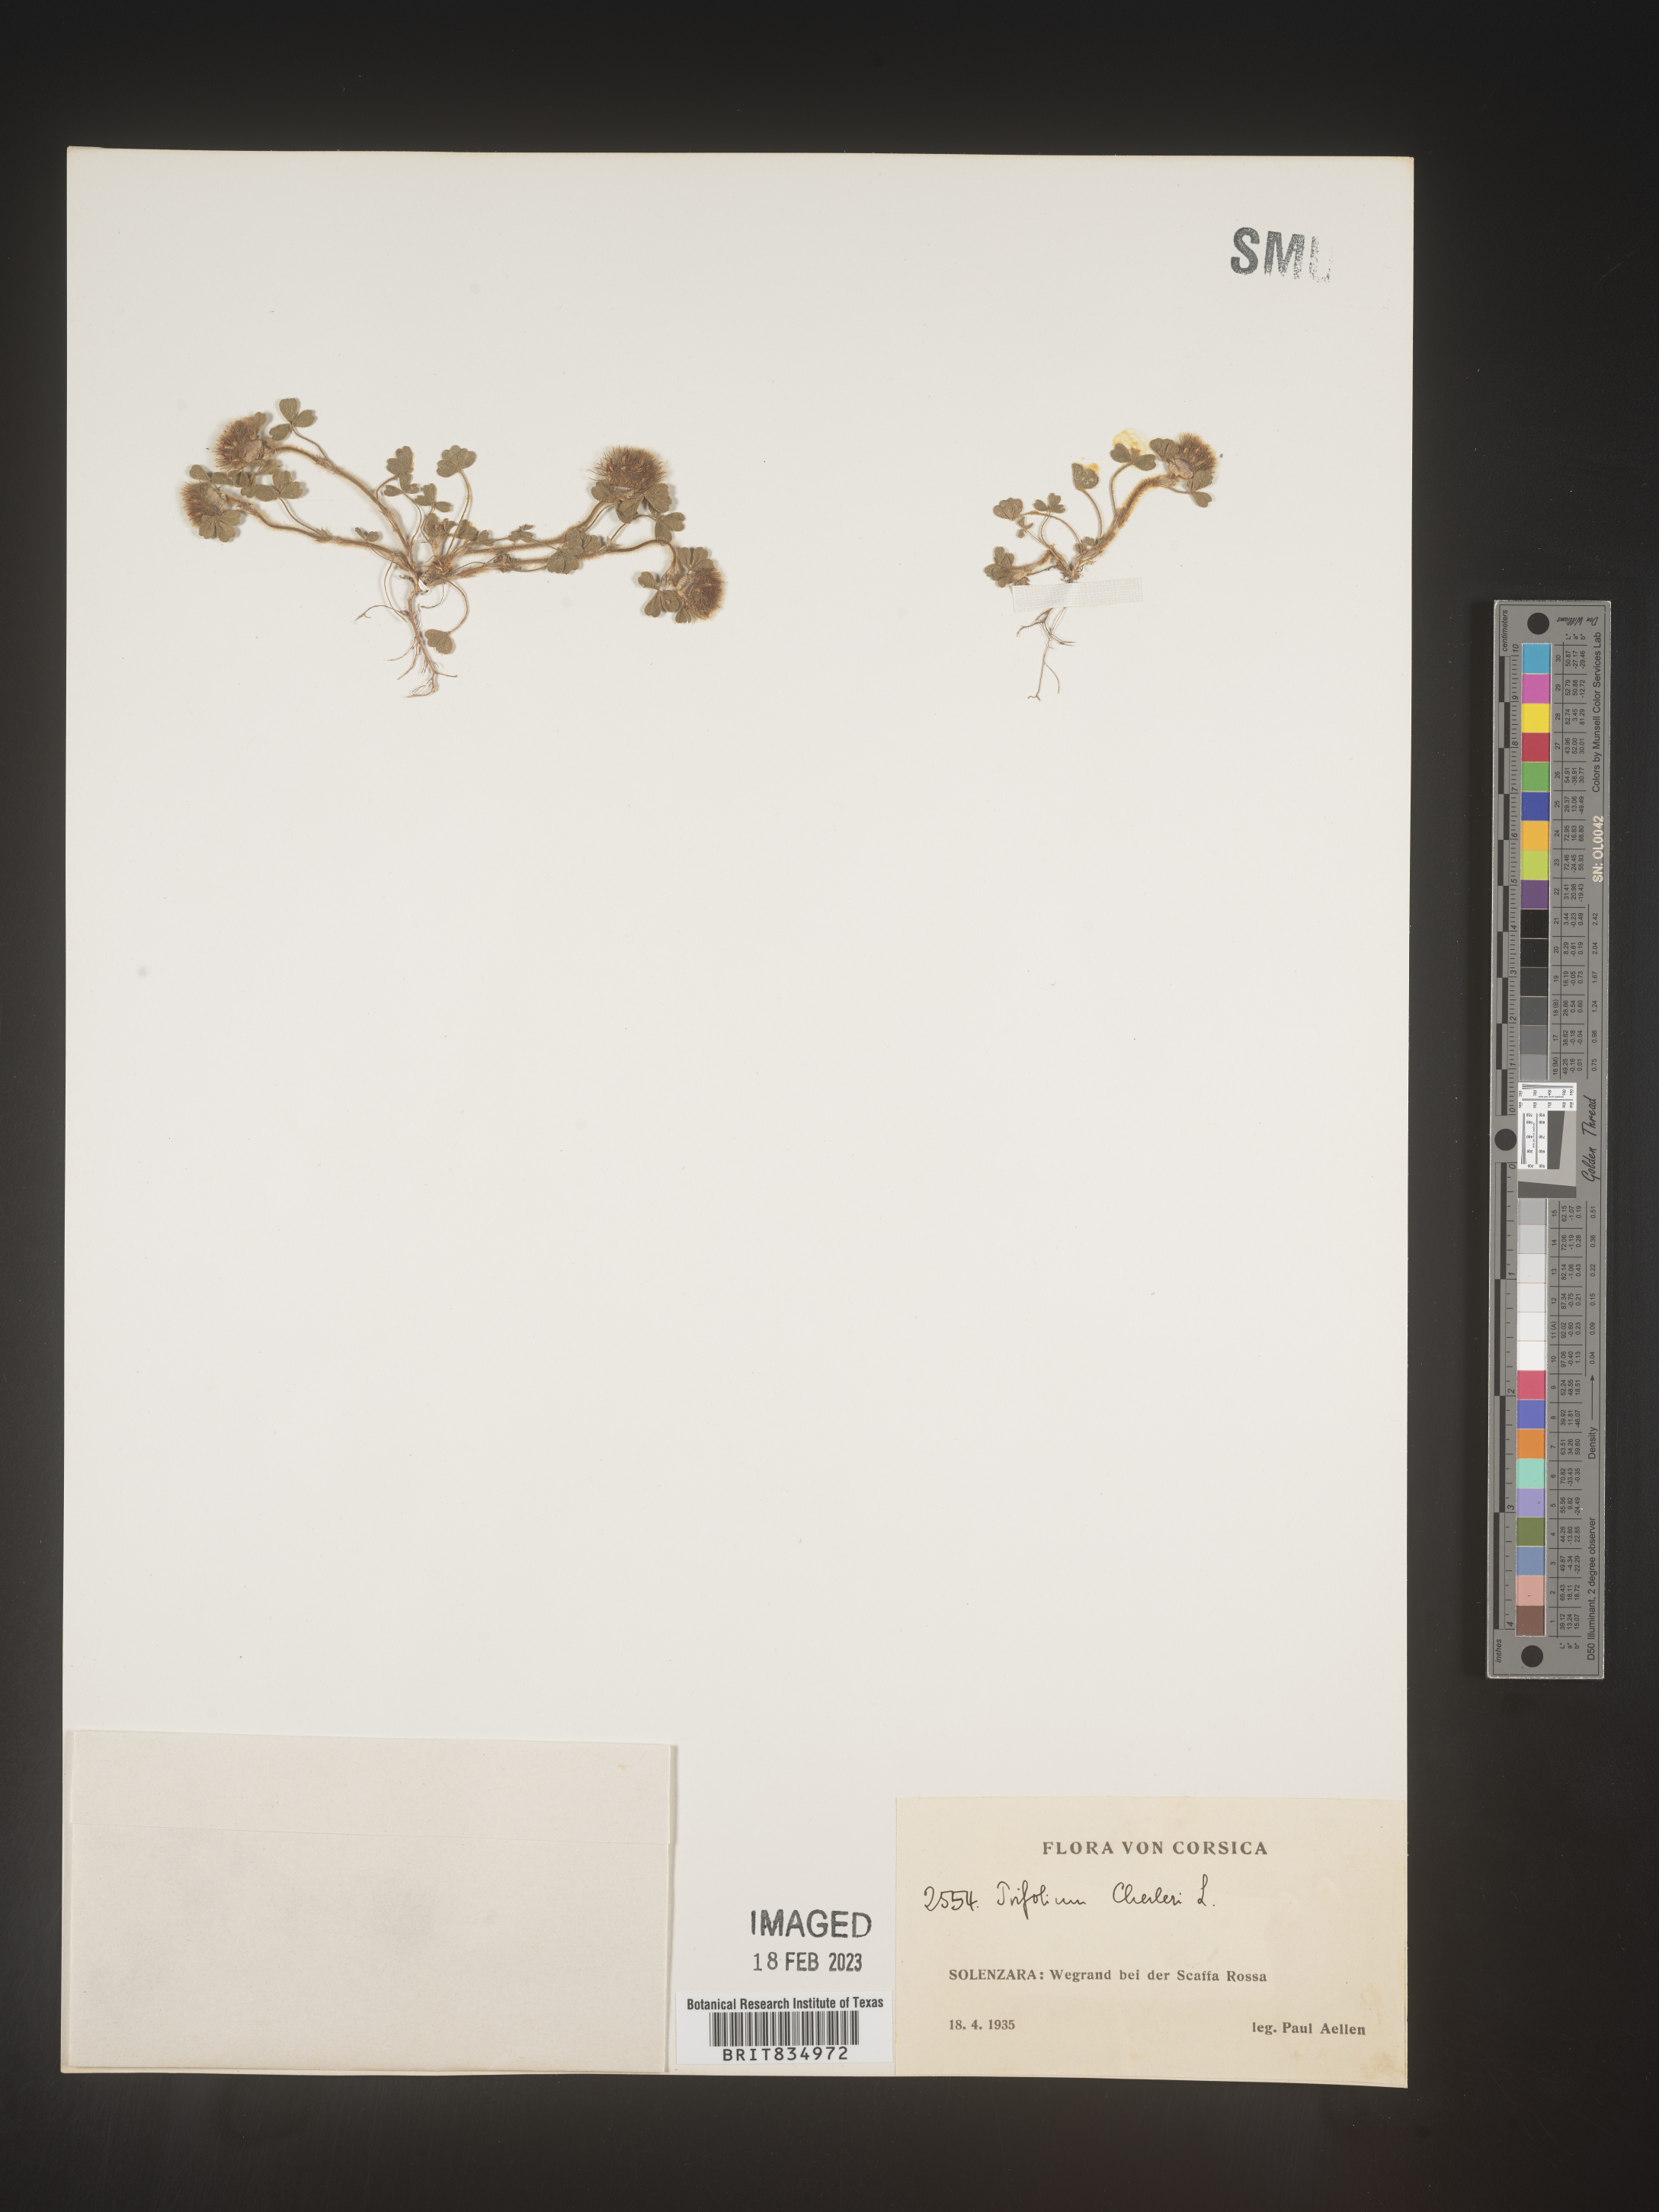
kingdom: Plantae
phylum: Tracheophyta
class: Magnoliopsida
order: Fabales
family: Fabaceae
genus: Trifolium
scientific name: Trifolium
